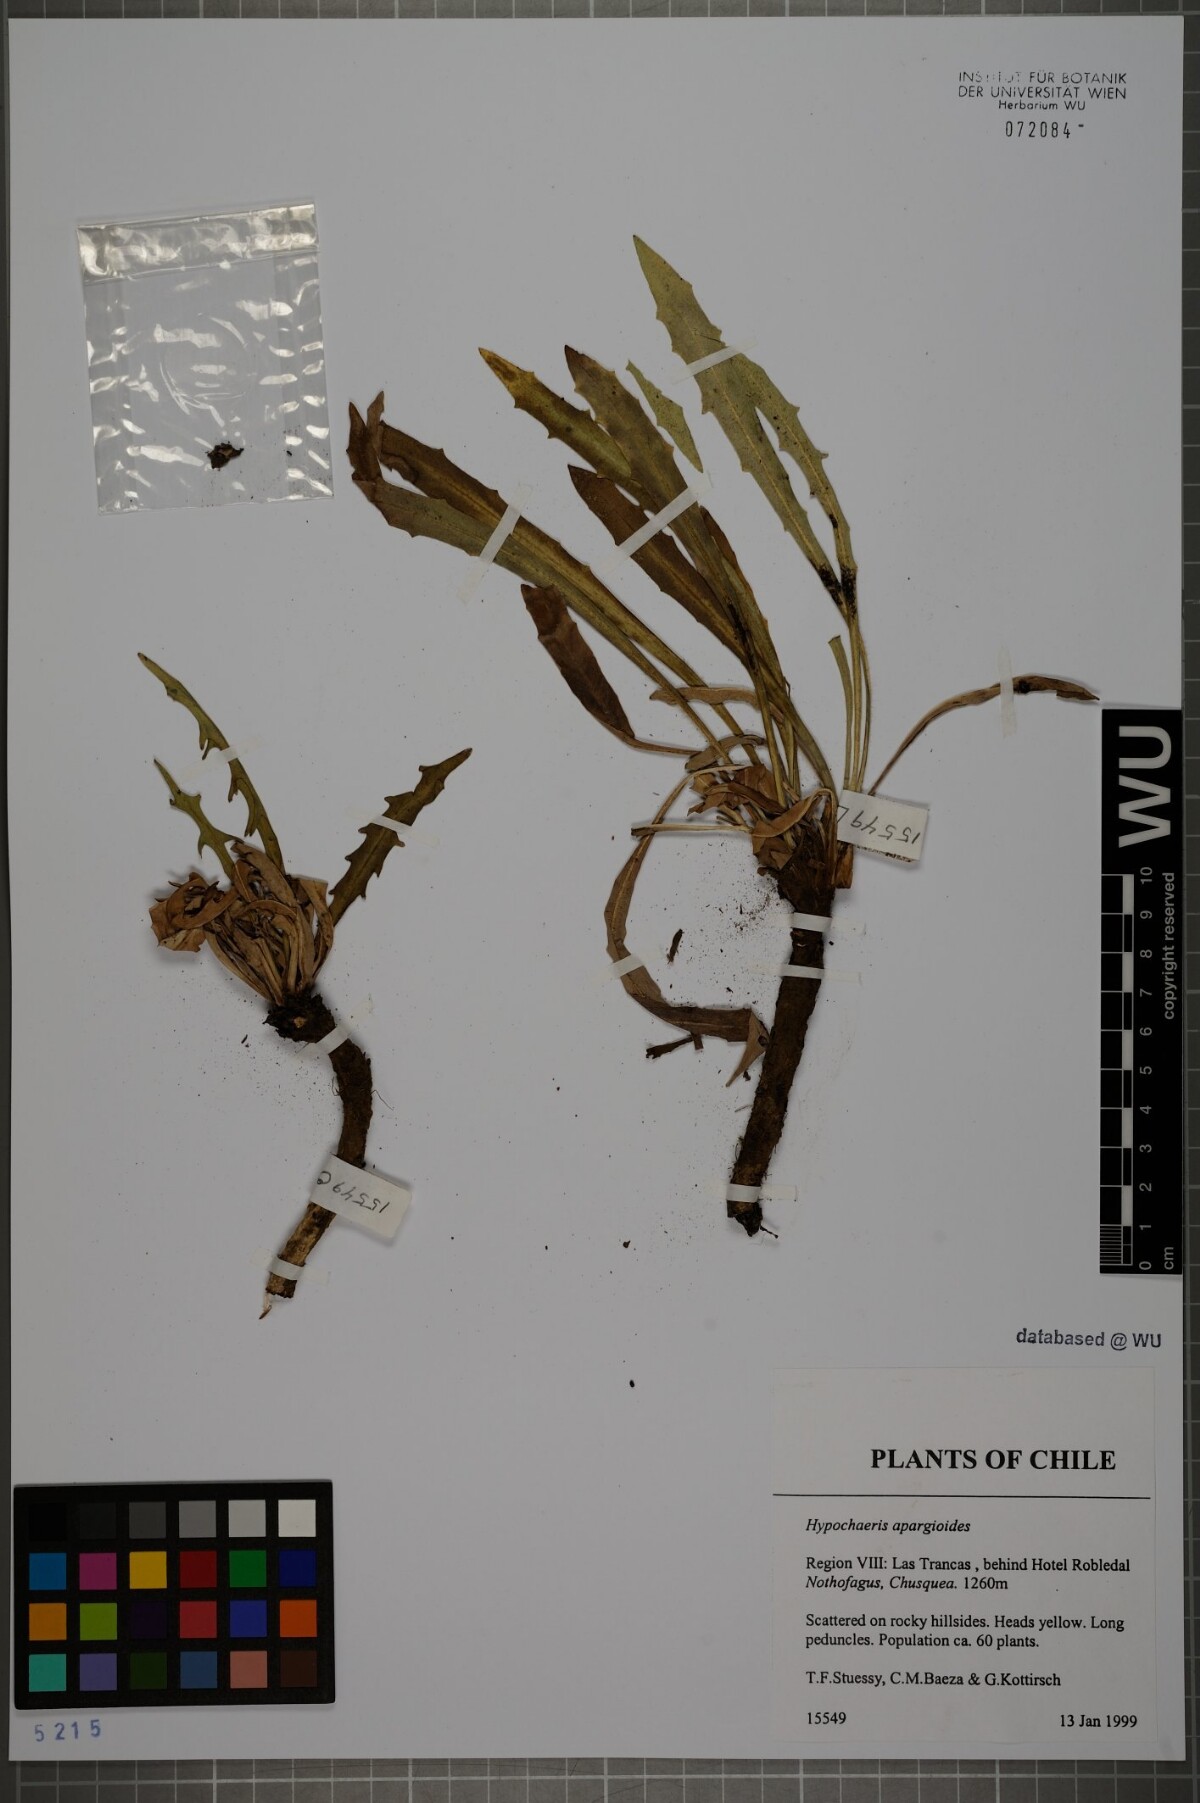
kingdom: Plantae
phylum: Tracheophyta
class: Magnoliopsida
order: Asterales
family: Asteraceae
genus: Hypochaeris
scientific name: Hypochaeris apargioides
